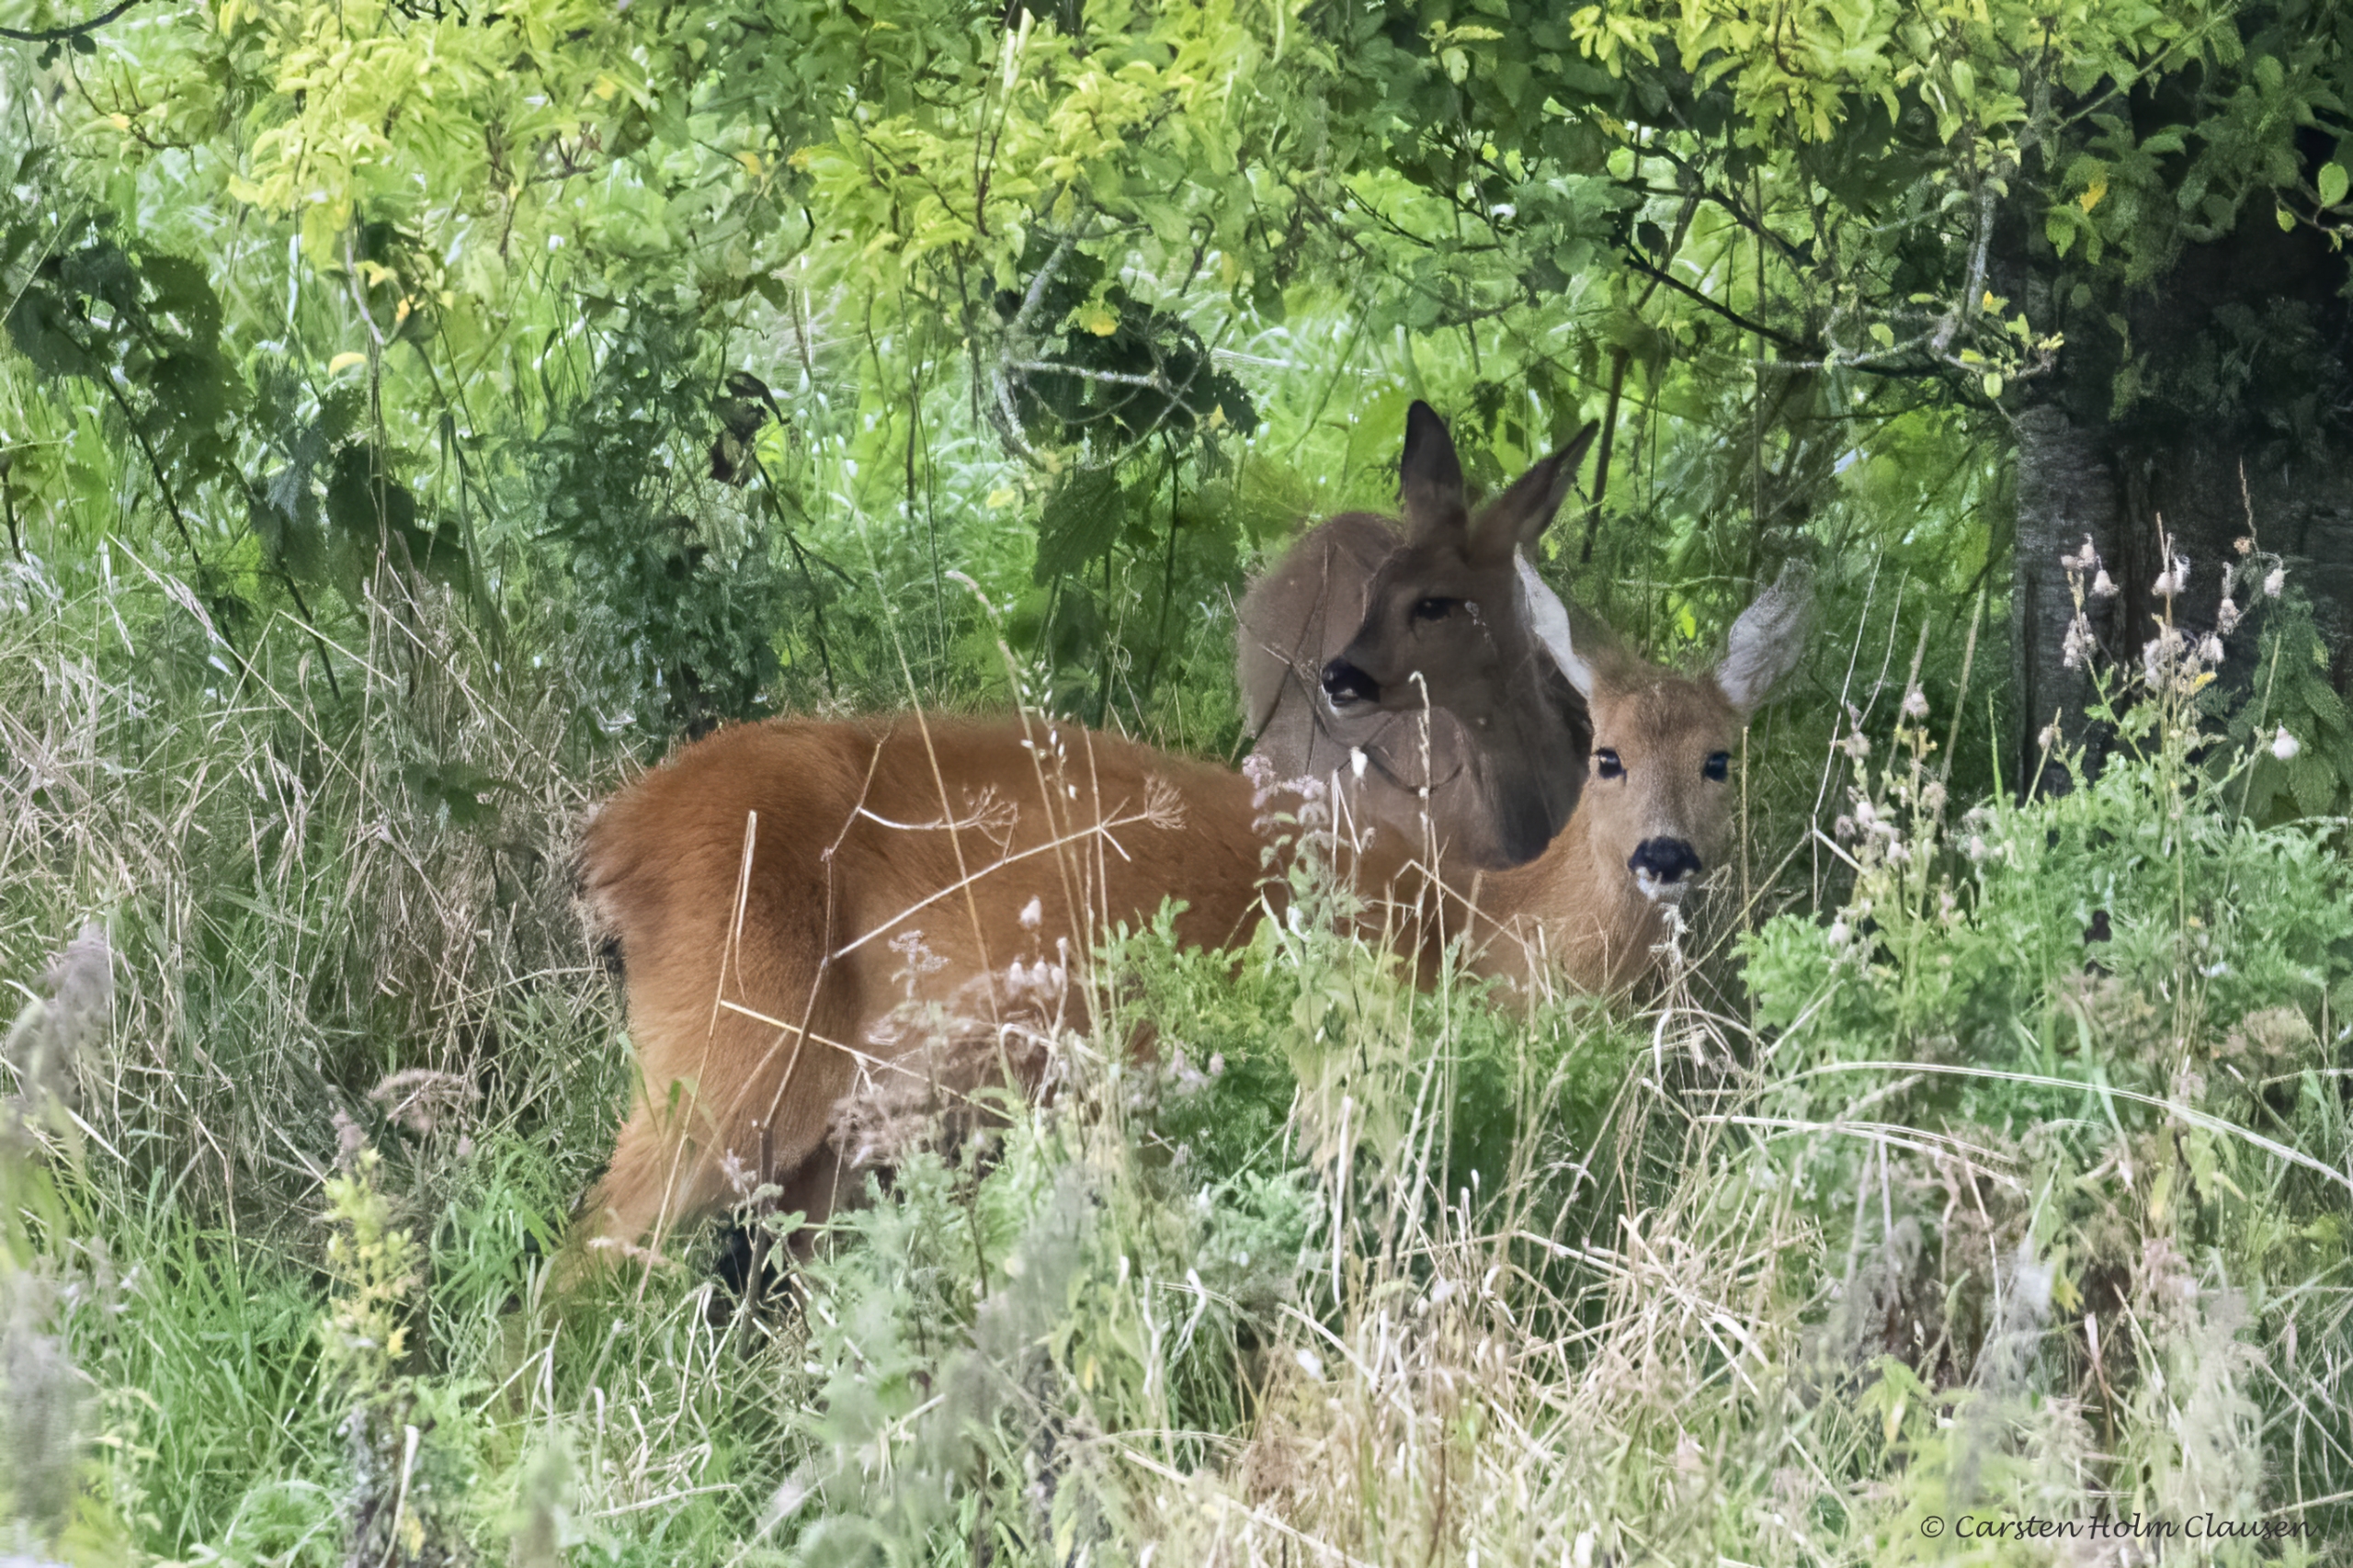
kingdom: Animalia
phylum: Chordata
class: Mammalia
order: Artiodactyla
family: Cervidae
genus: Capreolus
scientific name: Capreolus capreolus
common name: Rådyr
